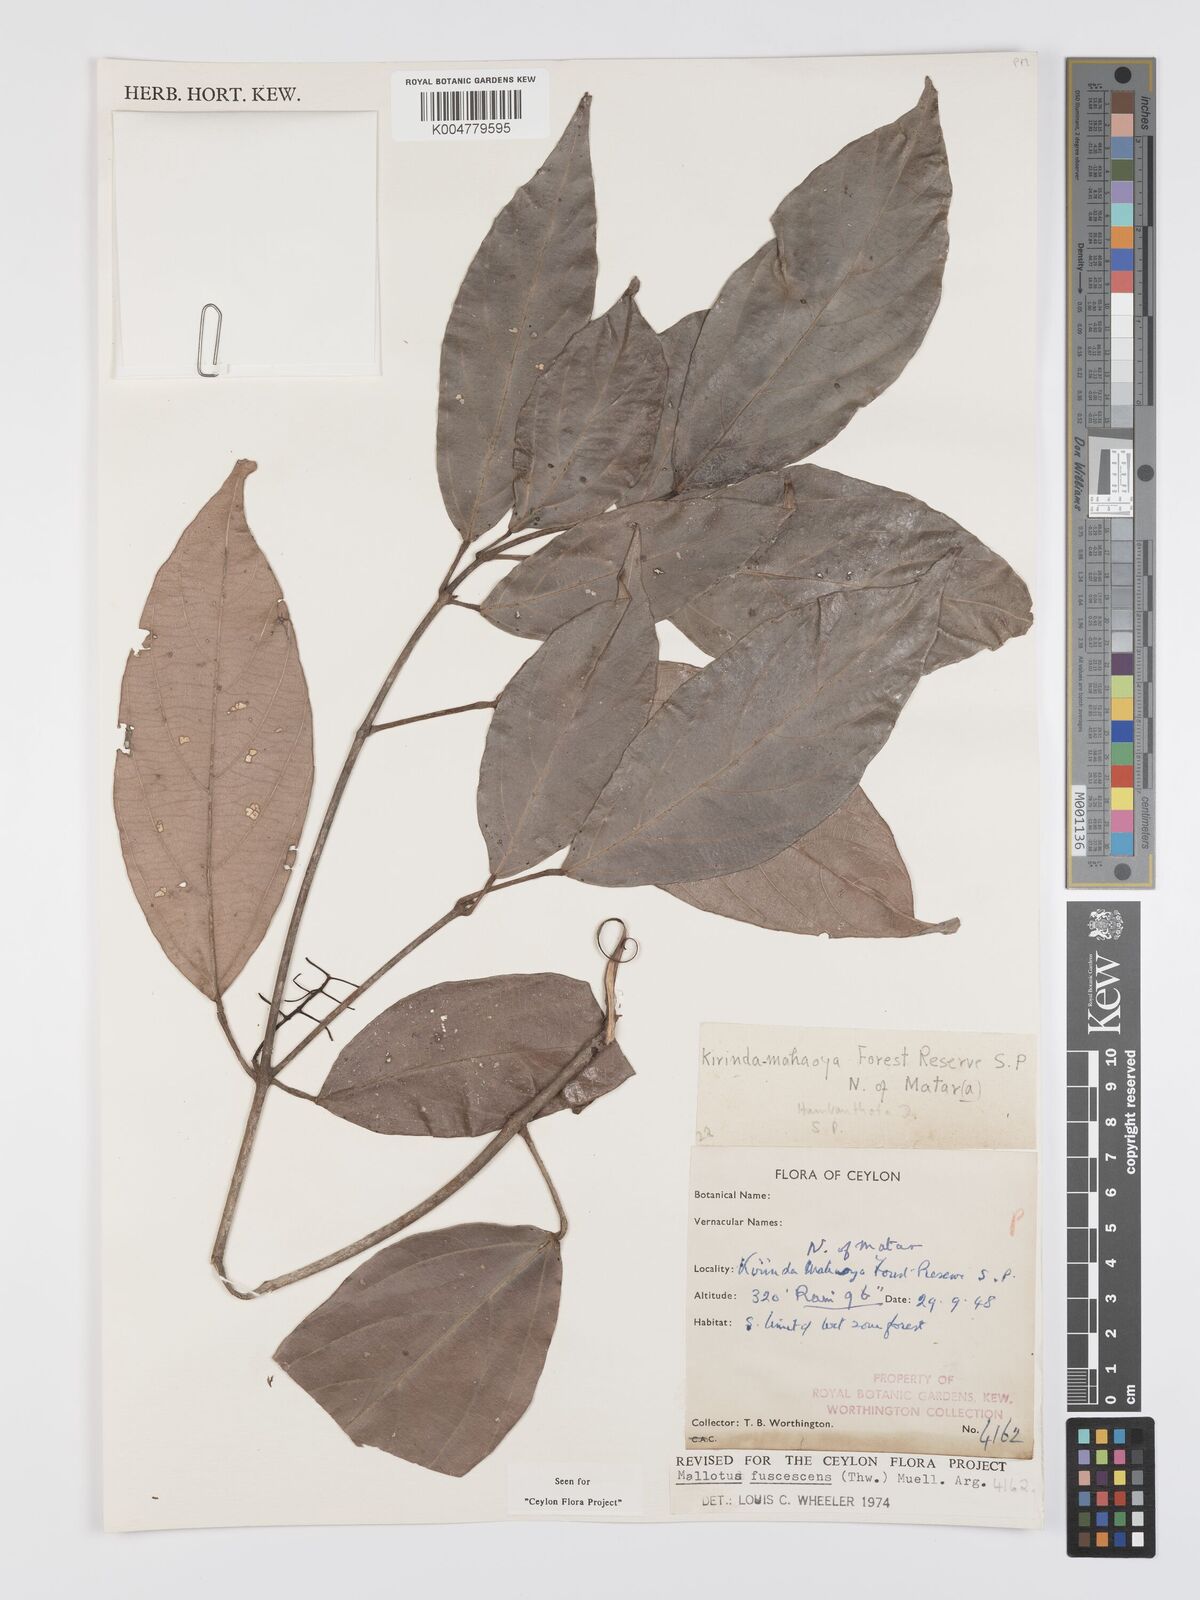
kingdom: Plantae
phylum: Tracheophyta
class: Magnoliopsida
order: Malpighiales
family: Euphorbiaceae
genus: Mallotus
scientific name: Mallotus fuscescens
